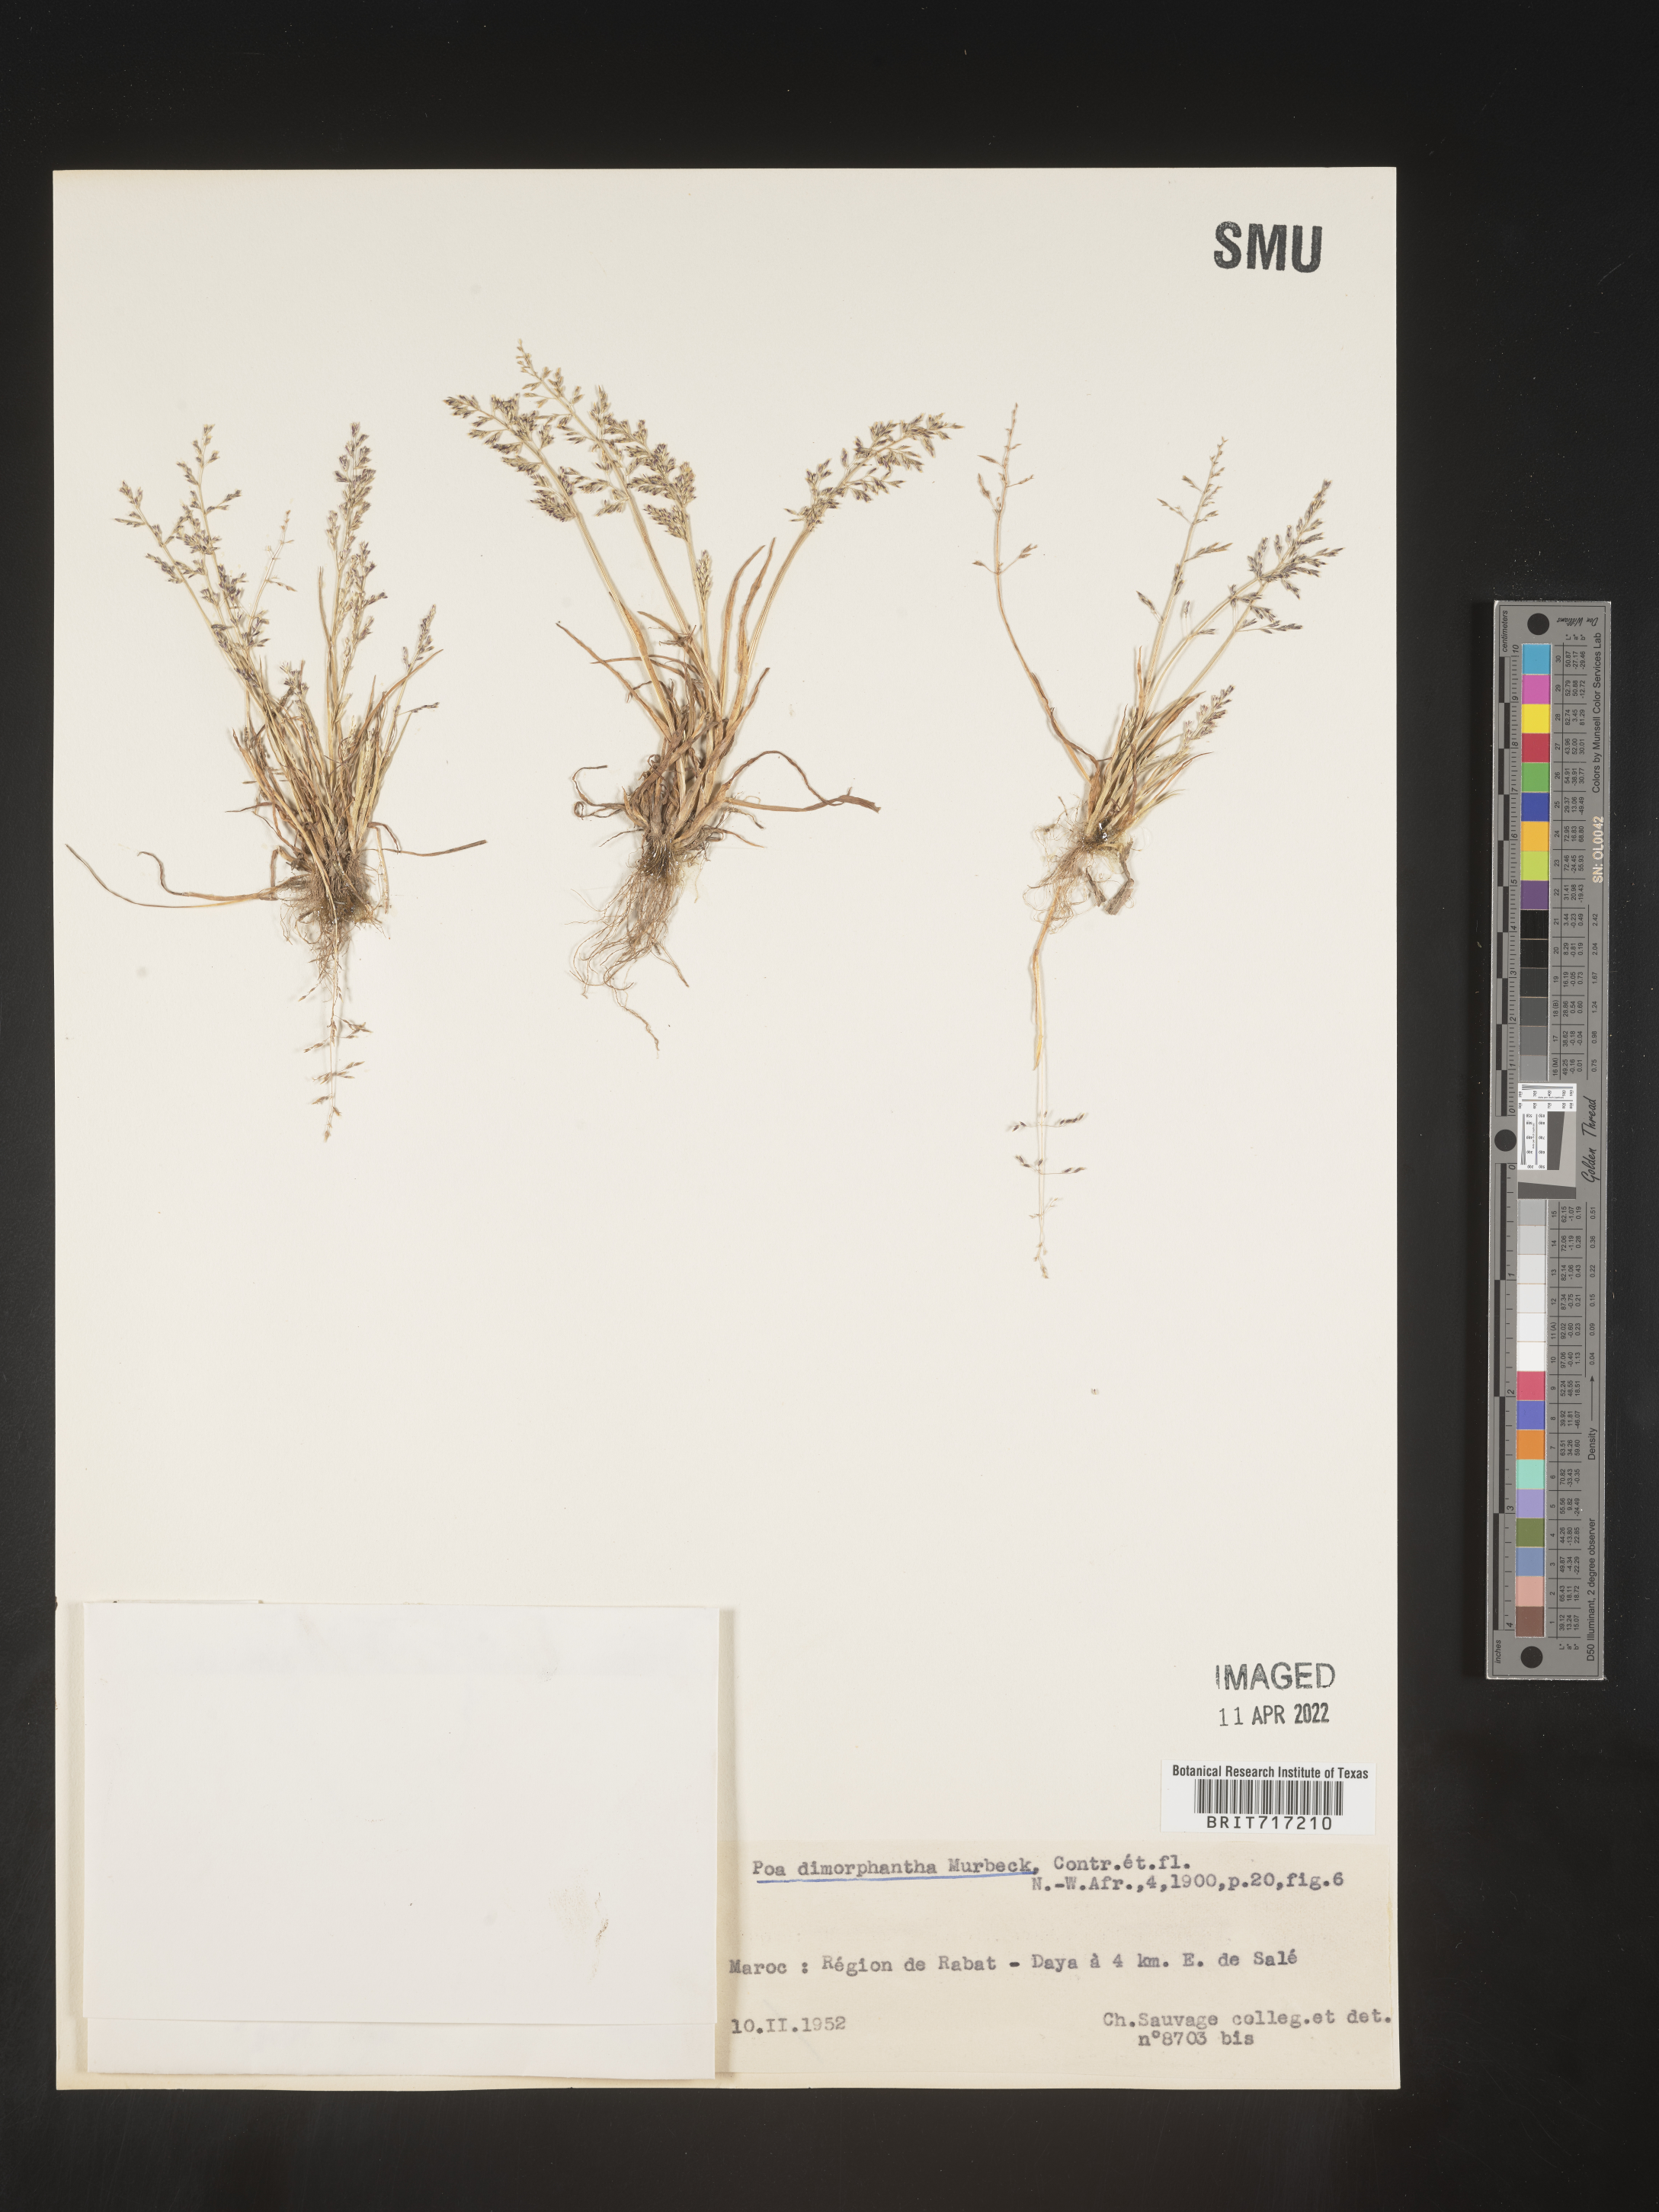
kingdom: Plantae
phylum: Tracheophyta
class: Liliopsida
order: Poales
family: Poaceae
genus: Poa
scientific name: Poa
